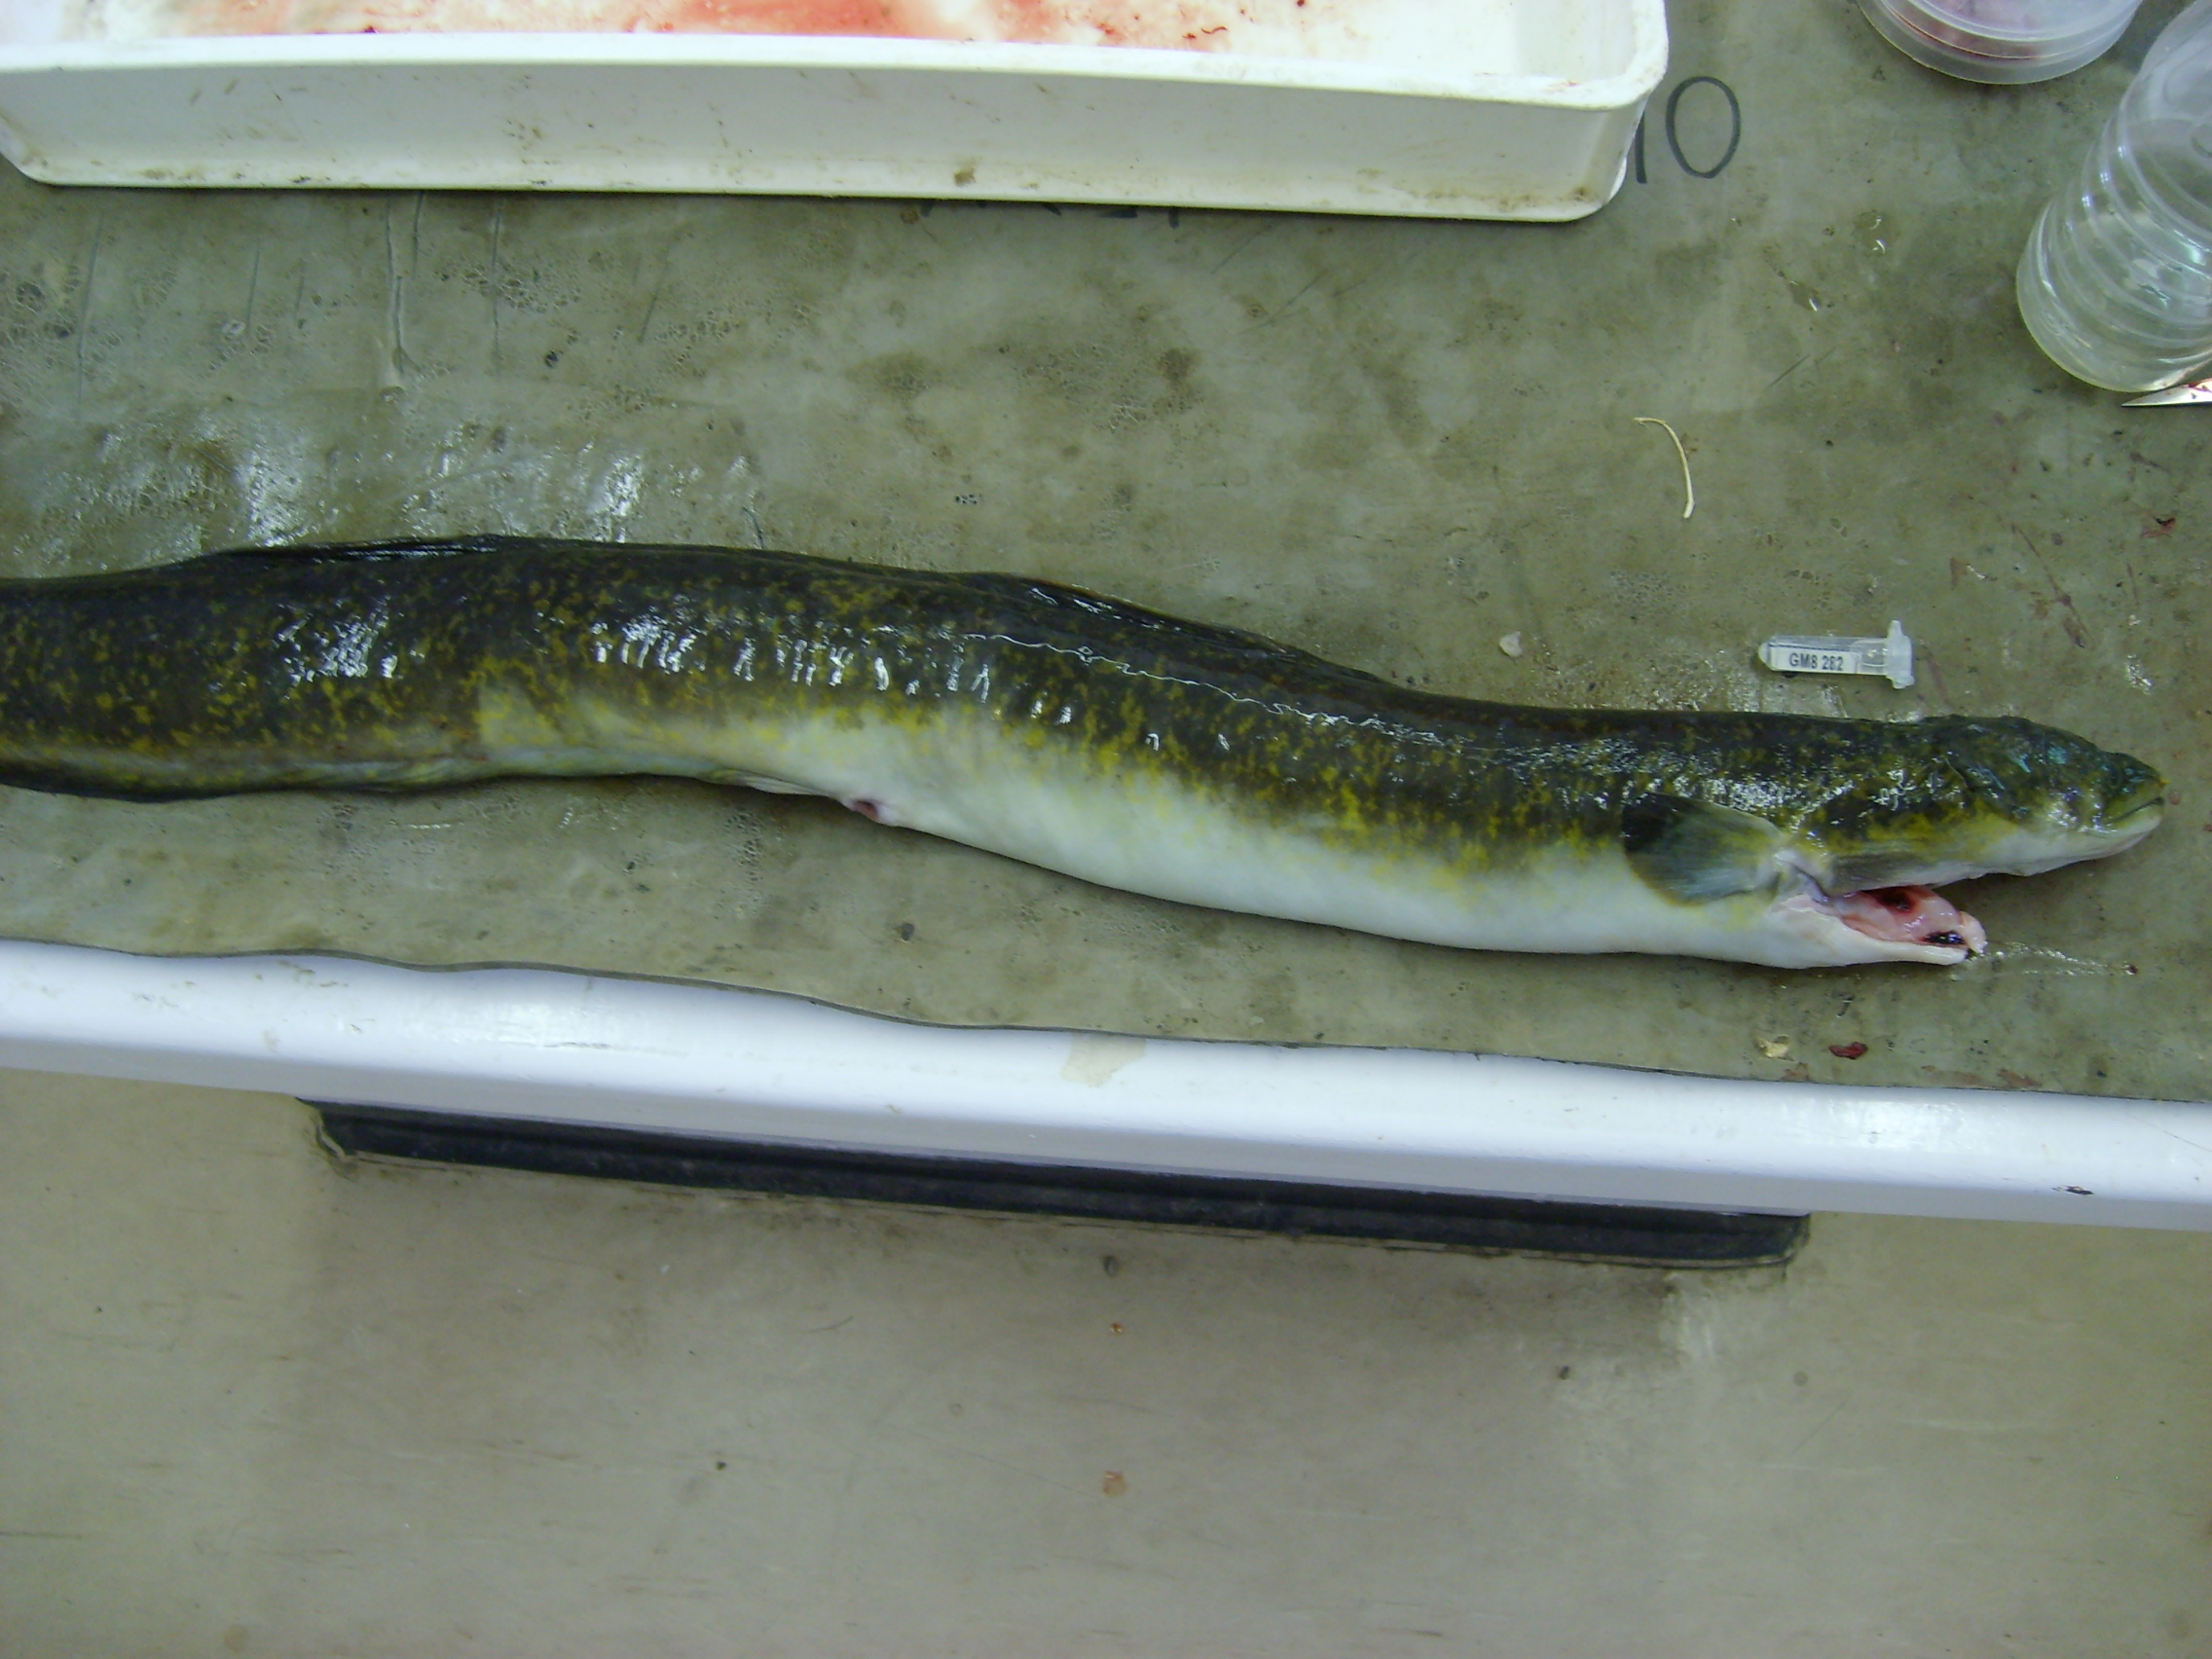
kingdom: Animalia
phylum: Chordata
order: Anguilliformes
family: Anguillidae
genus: Anguilla
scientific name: Anguilla marmorata
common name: Giant mottled eel
